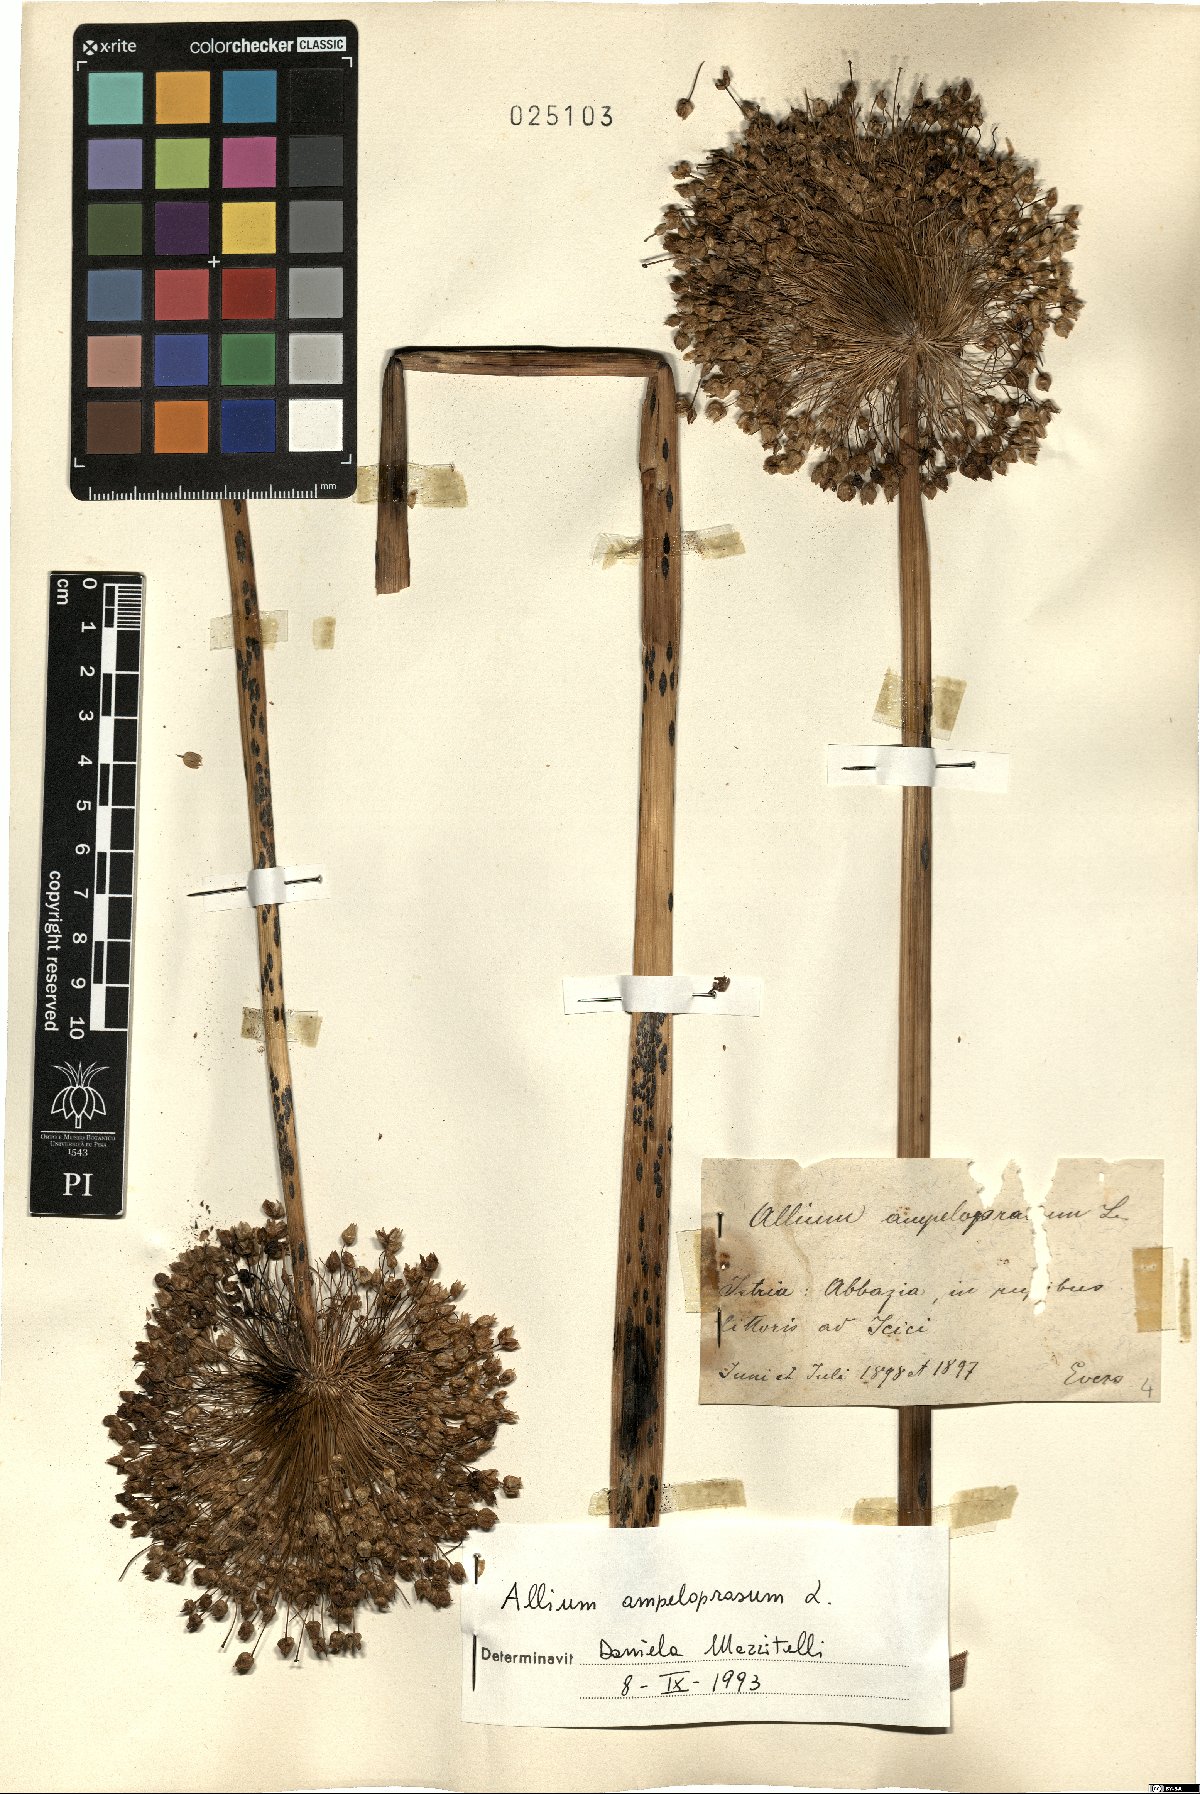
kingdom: Plantae
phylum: Tracheophyta
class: Liliopsida
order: Asparagales
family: Amaryllidaceae
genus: Allium
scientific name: Allium ampeloprasum
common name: Wild leek
